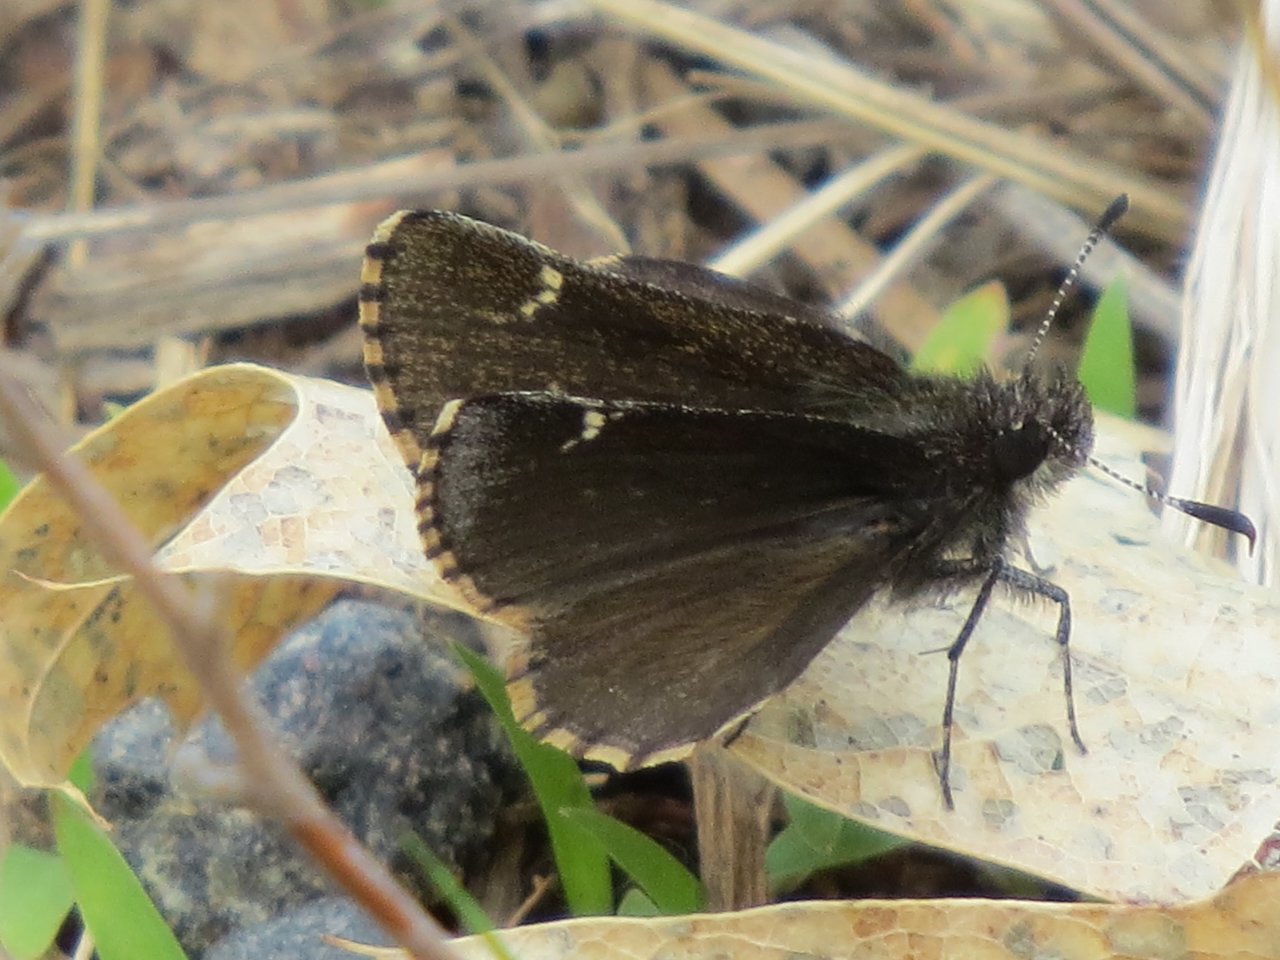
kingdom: Animalia
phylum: Arthropoda
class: Insecta
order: Lepidoptera
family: Hesperiidae
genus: Mastor
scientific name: Mastor vialis
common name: Common Roadside-Skipper
